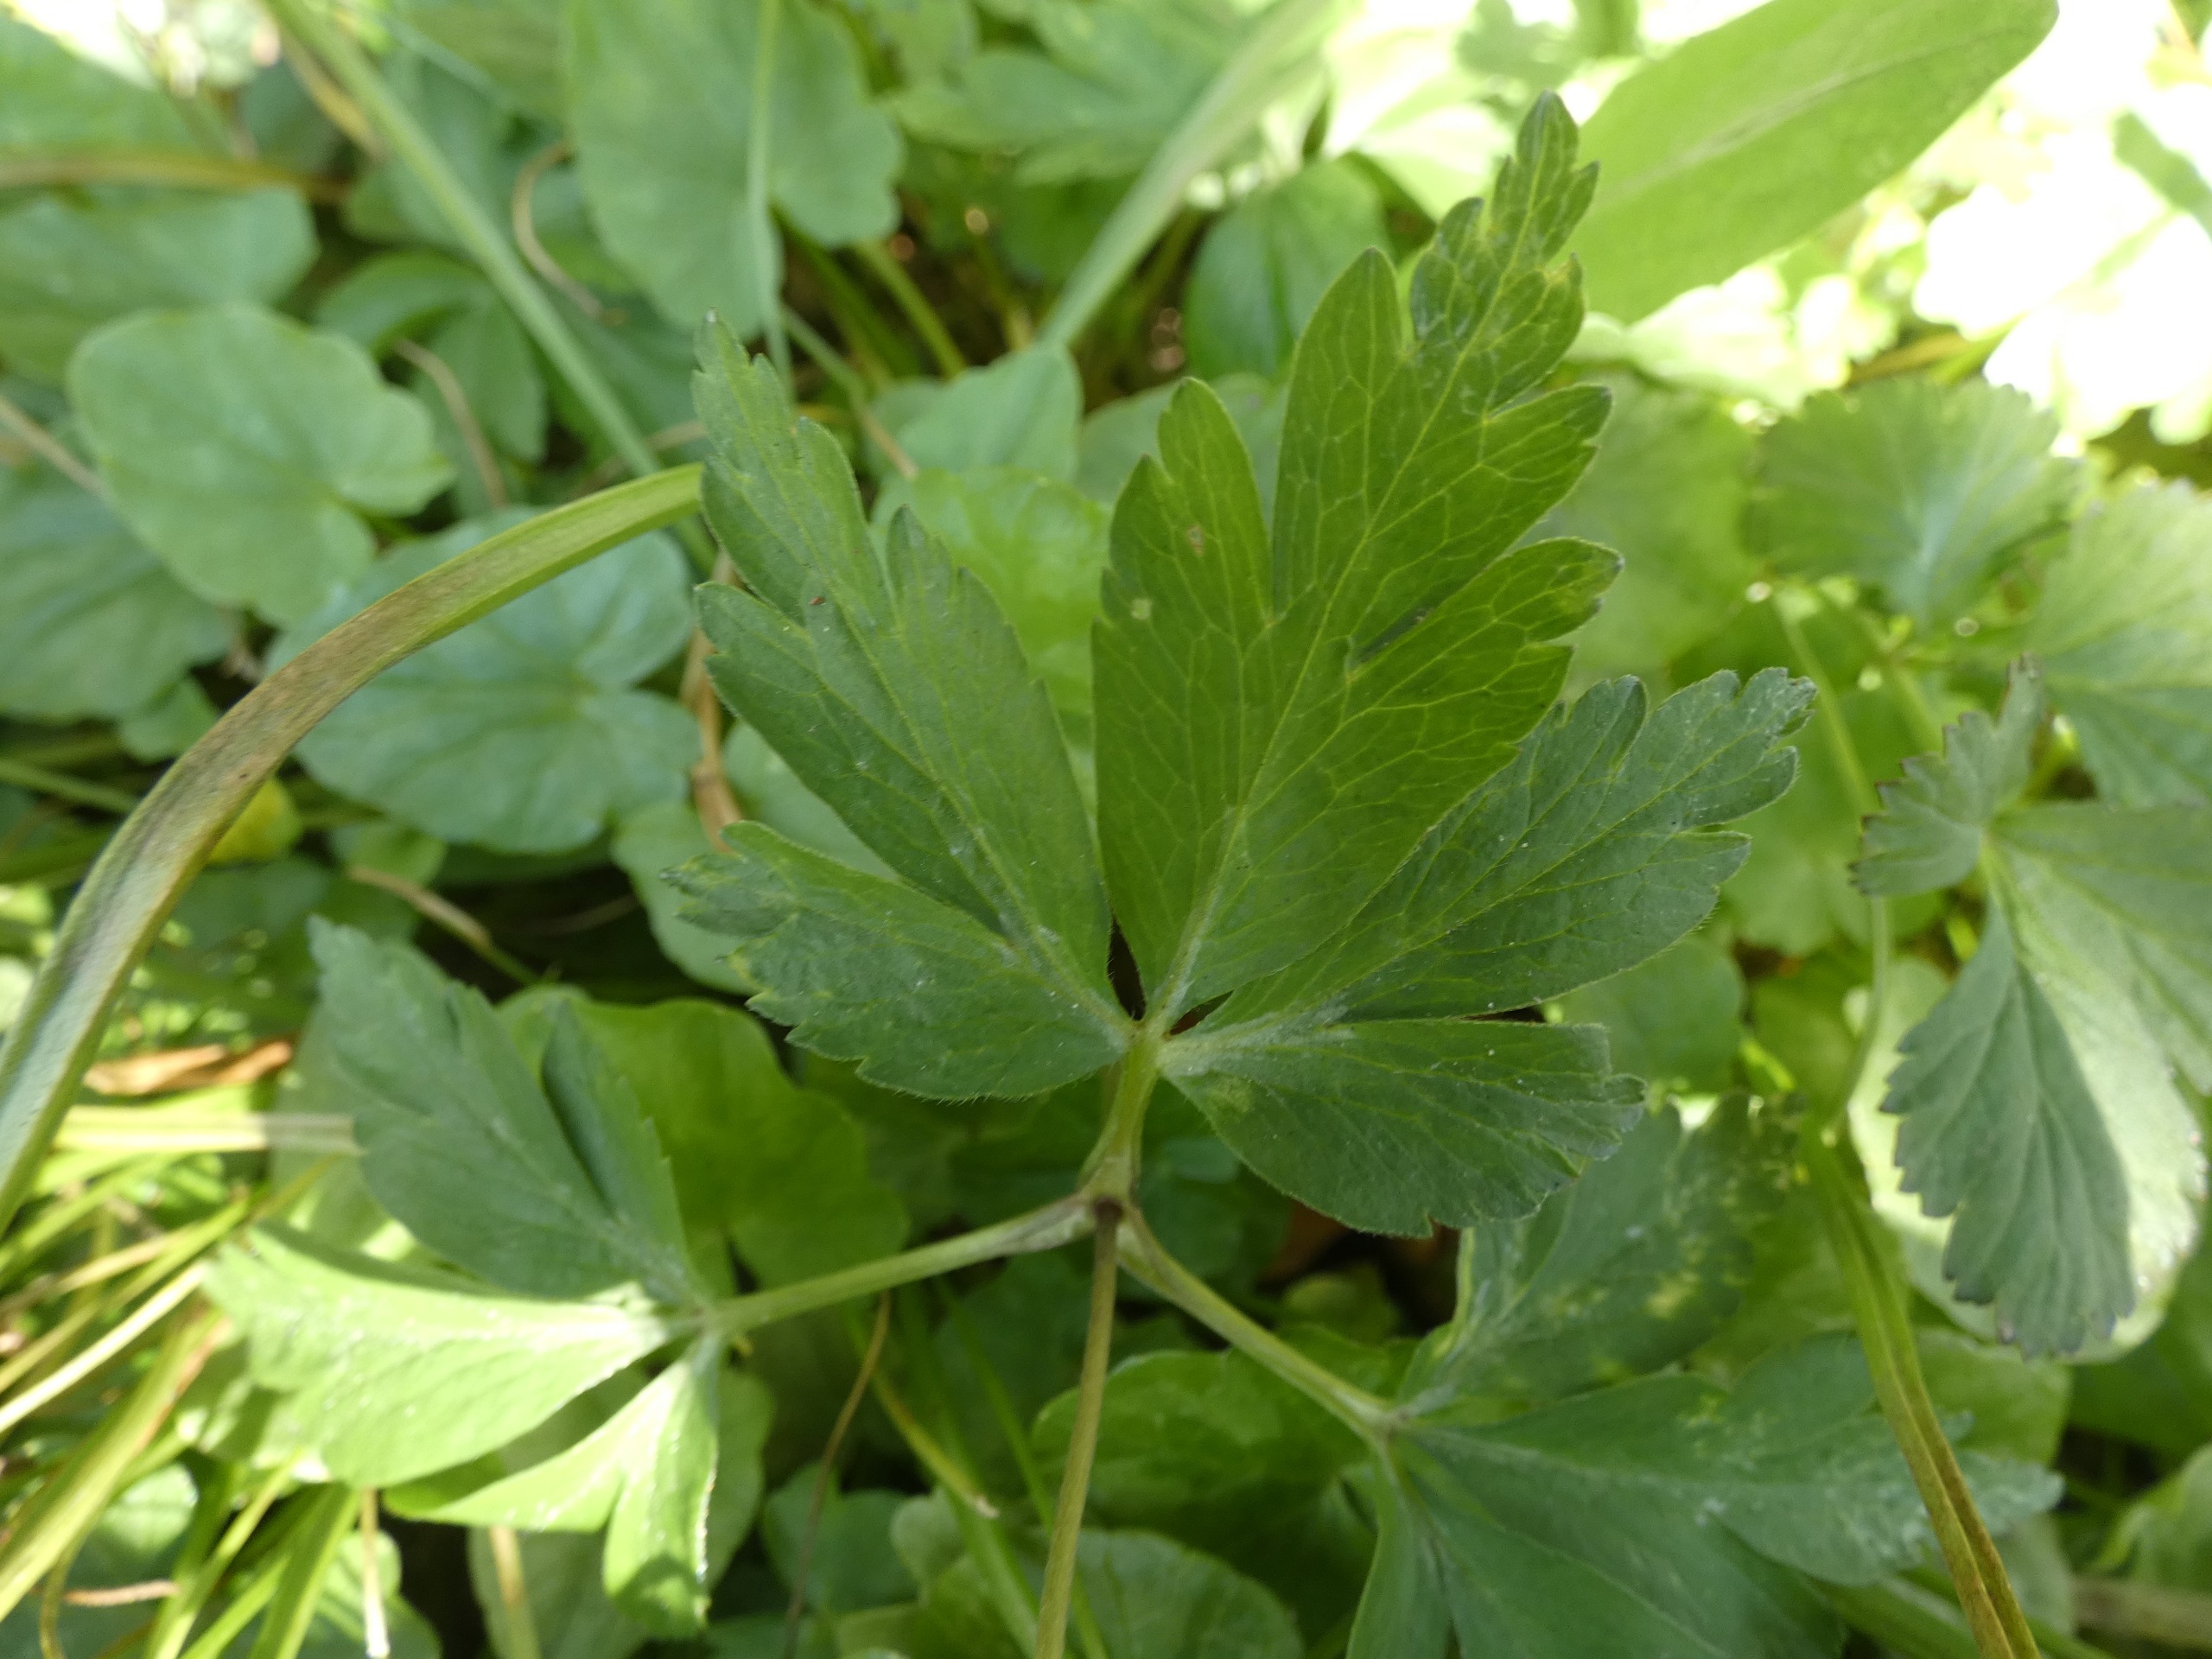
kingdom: Plantae
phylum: Tracheophyta
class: Magnoliopsida
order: Ranunculales
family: Ranunculaceae
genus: Anemone
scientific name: Anemone nemorosa
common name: Hvid anemone
